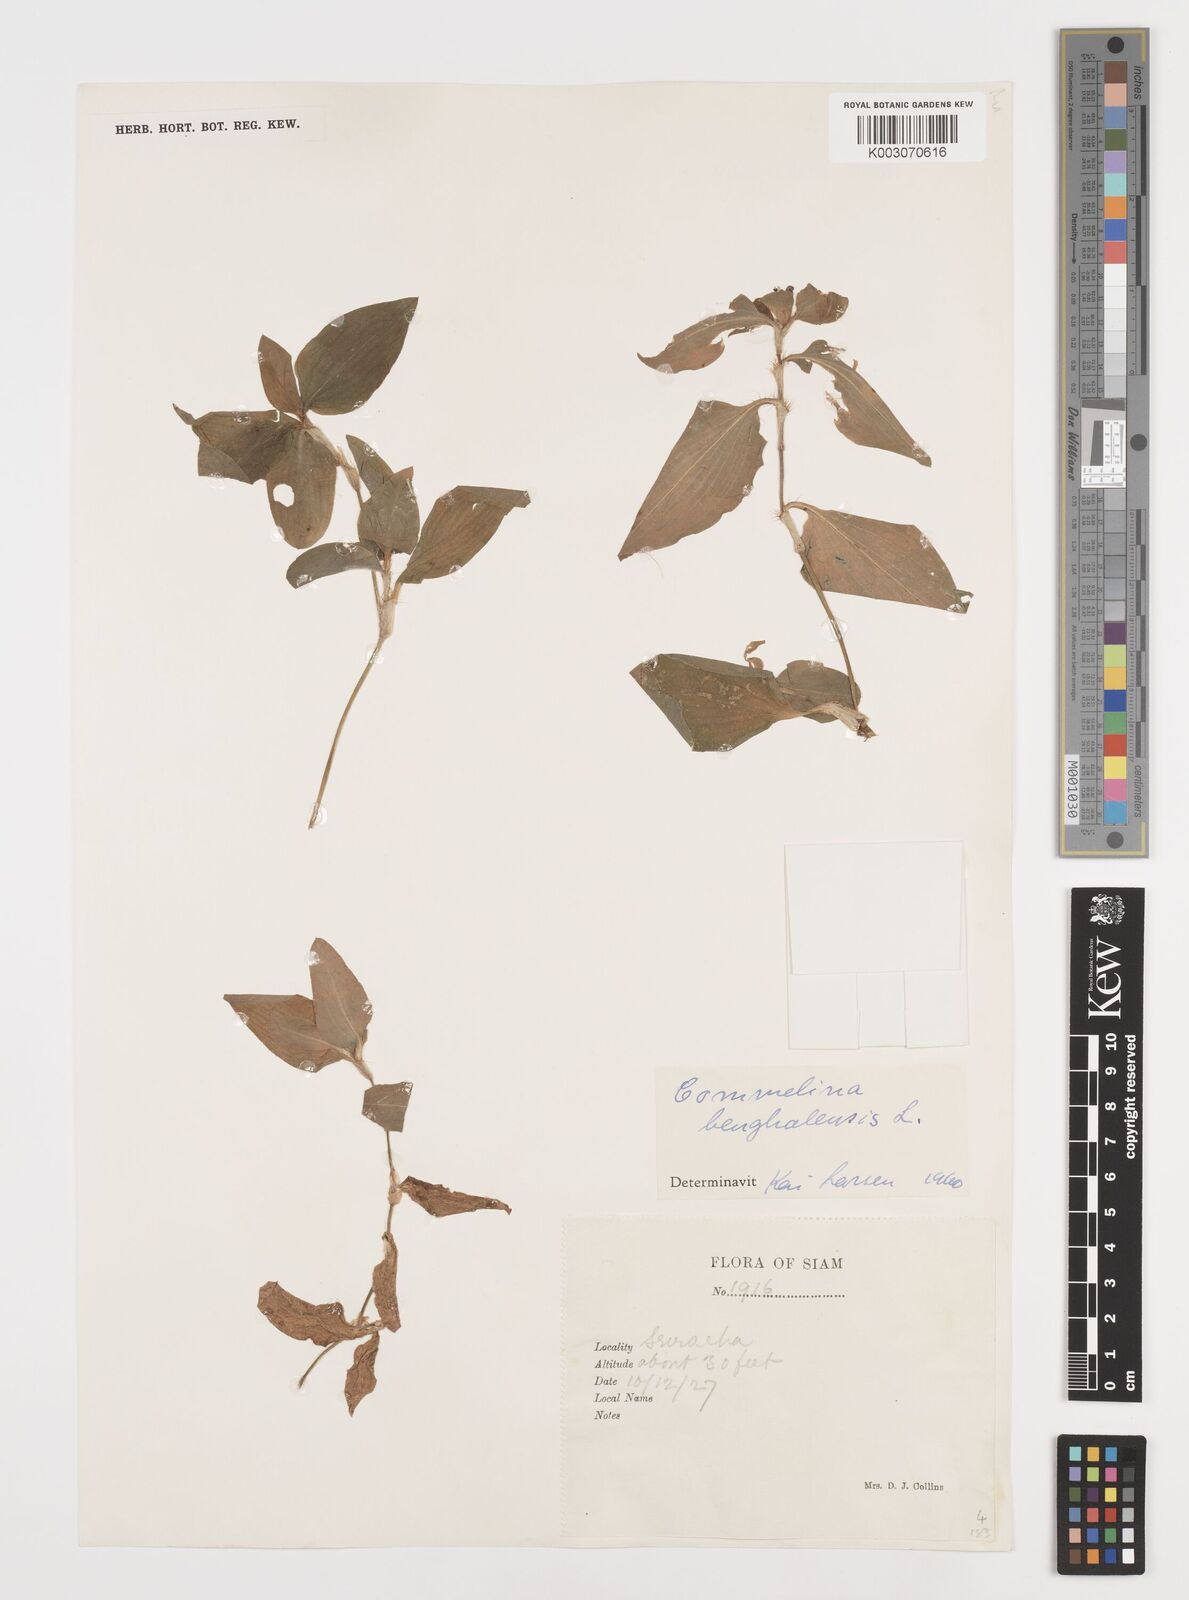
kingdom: Plantae
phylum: Tracheophyta
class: Liliopsida
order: Commelinales
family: Commelinaceae
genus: Commelina
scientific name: Commelina benghalensis
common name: Jio
